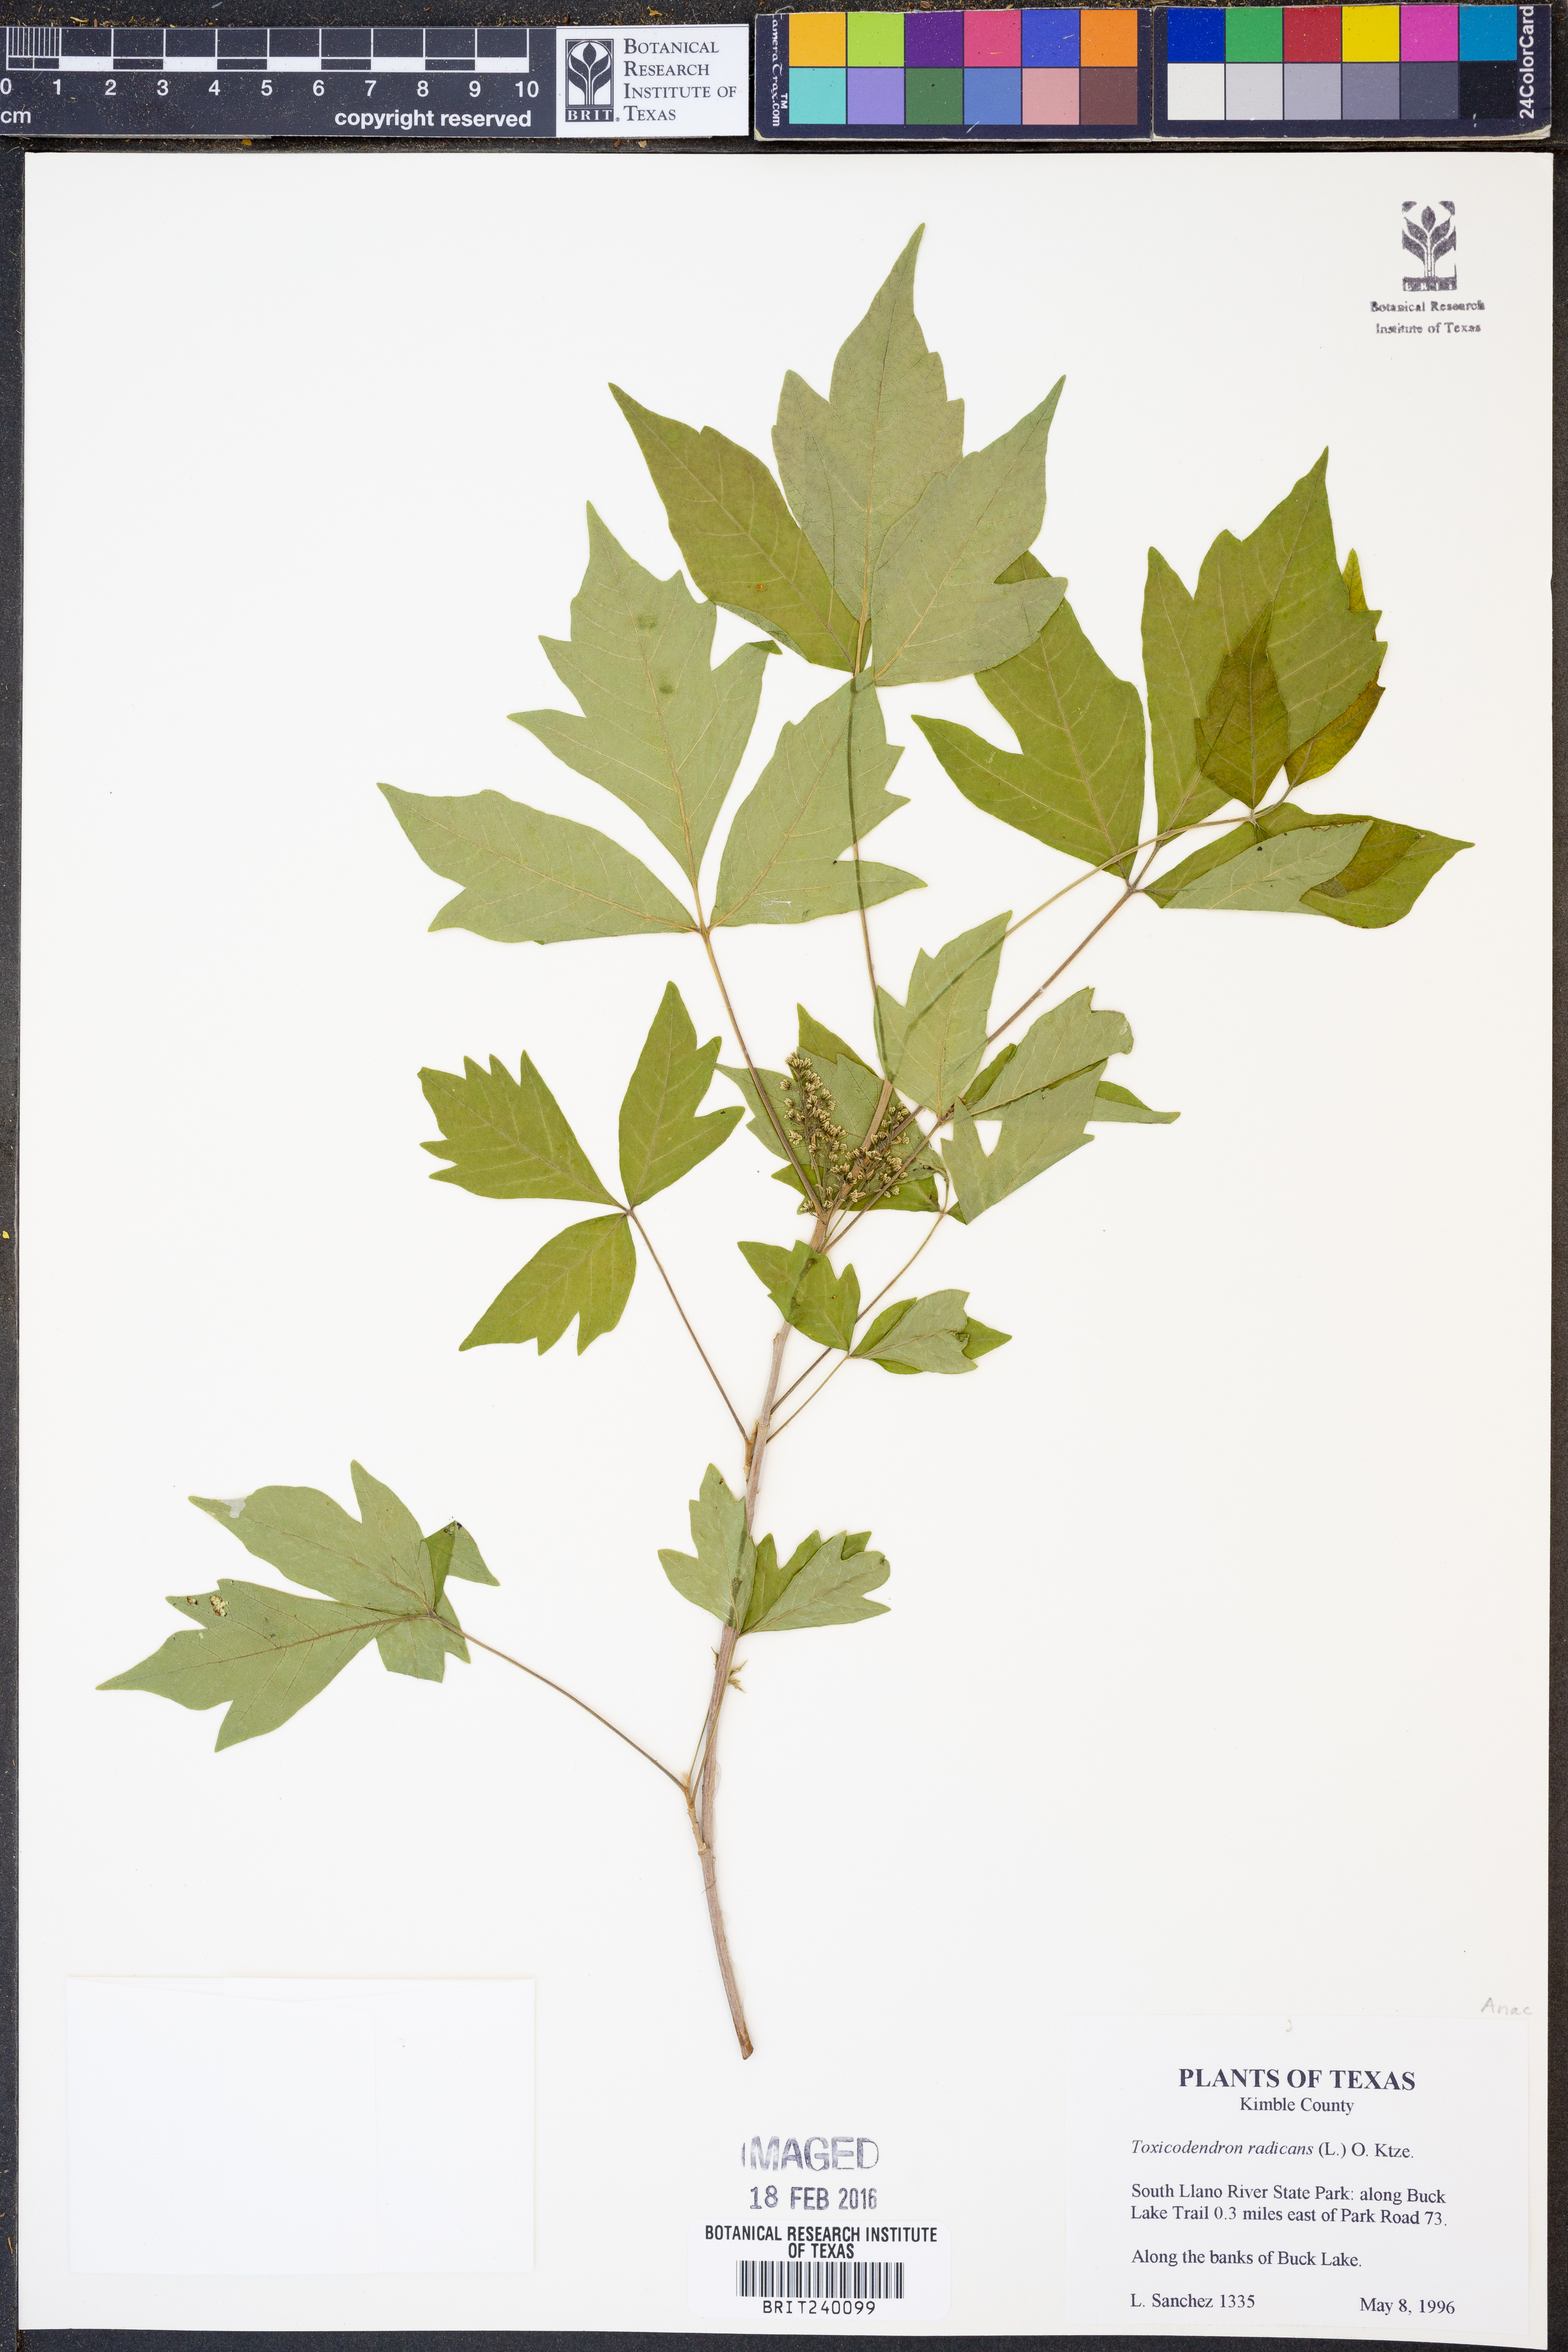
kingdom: Plantae
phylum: Tracheophyta
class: Magnoliopsida
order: Sapindales
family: Anacardiaceae
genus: Toxicodendron
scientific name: Toxicodendron radicans
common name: Poison ivy
